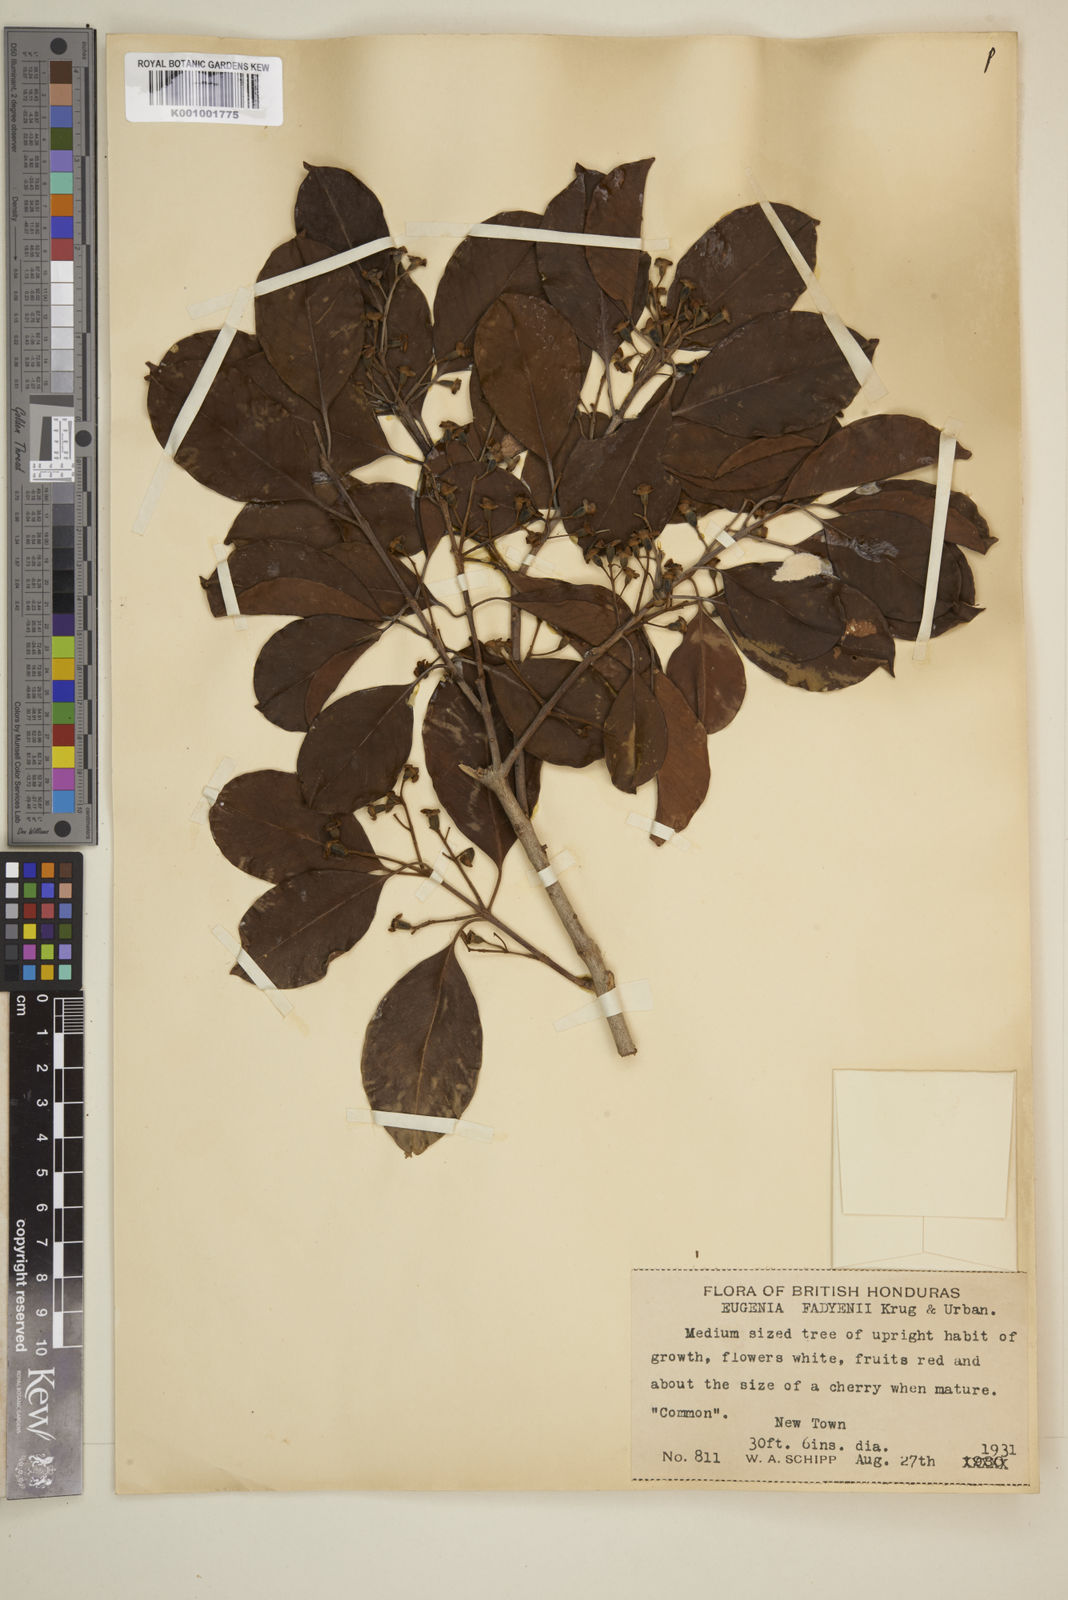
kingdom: Plantae
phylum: Tracheophyta
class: Magnoliopsida
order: Myrtales
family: Myrtaceae
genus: Eugenia
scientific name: Eugenia aeruginea
